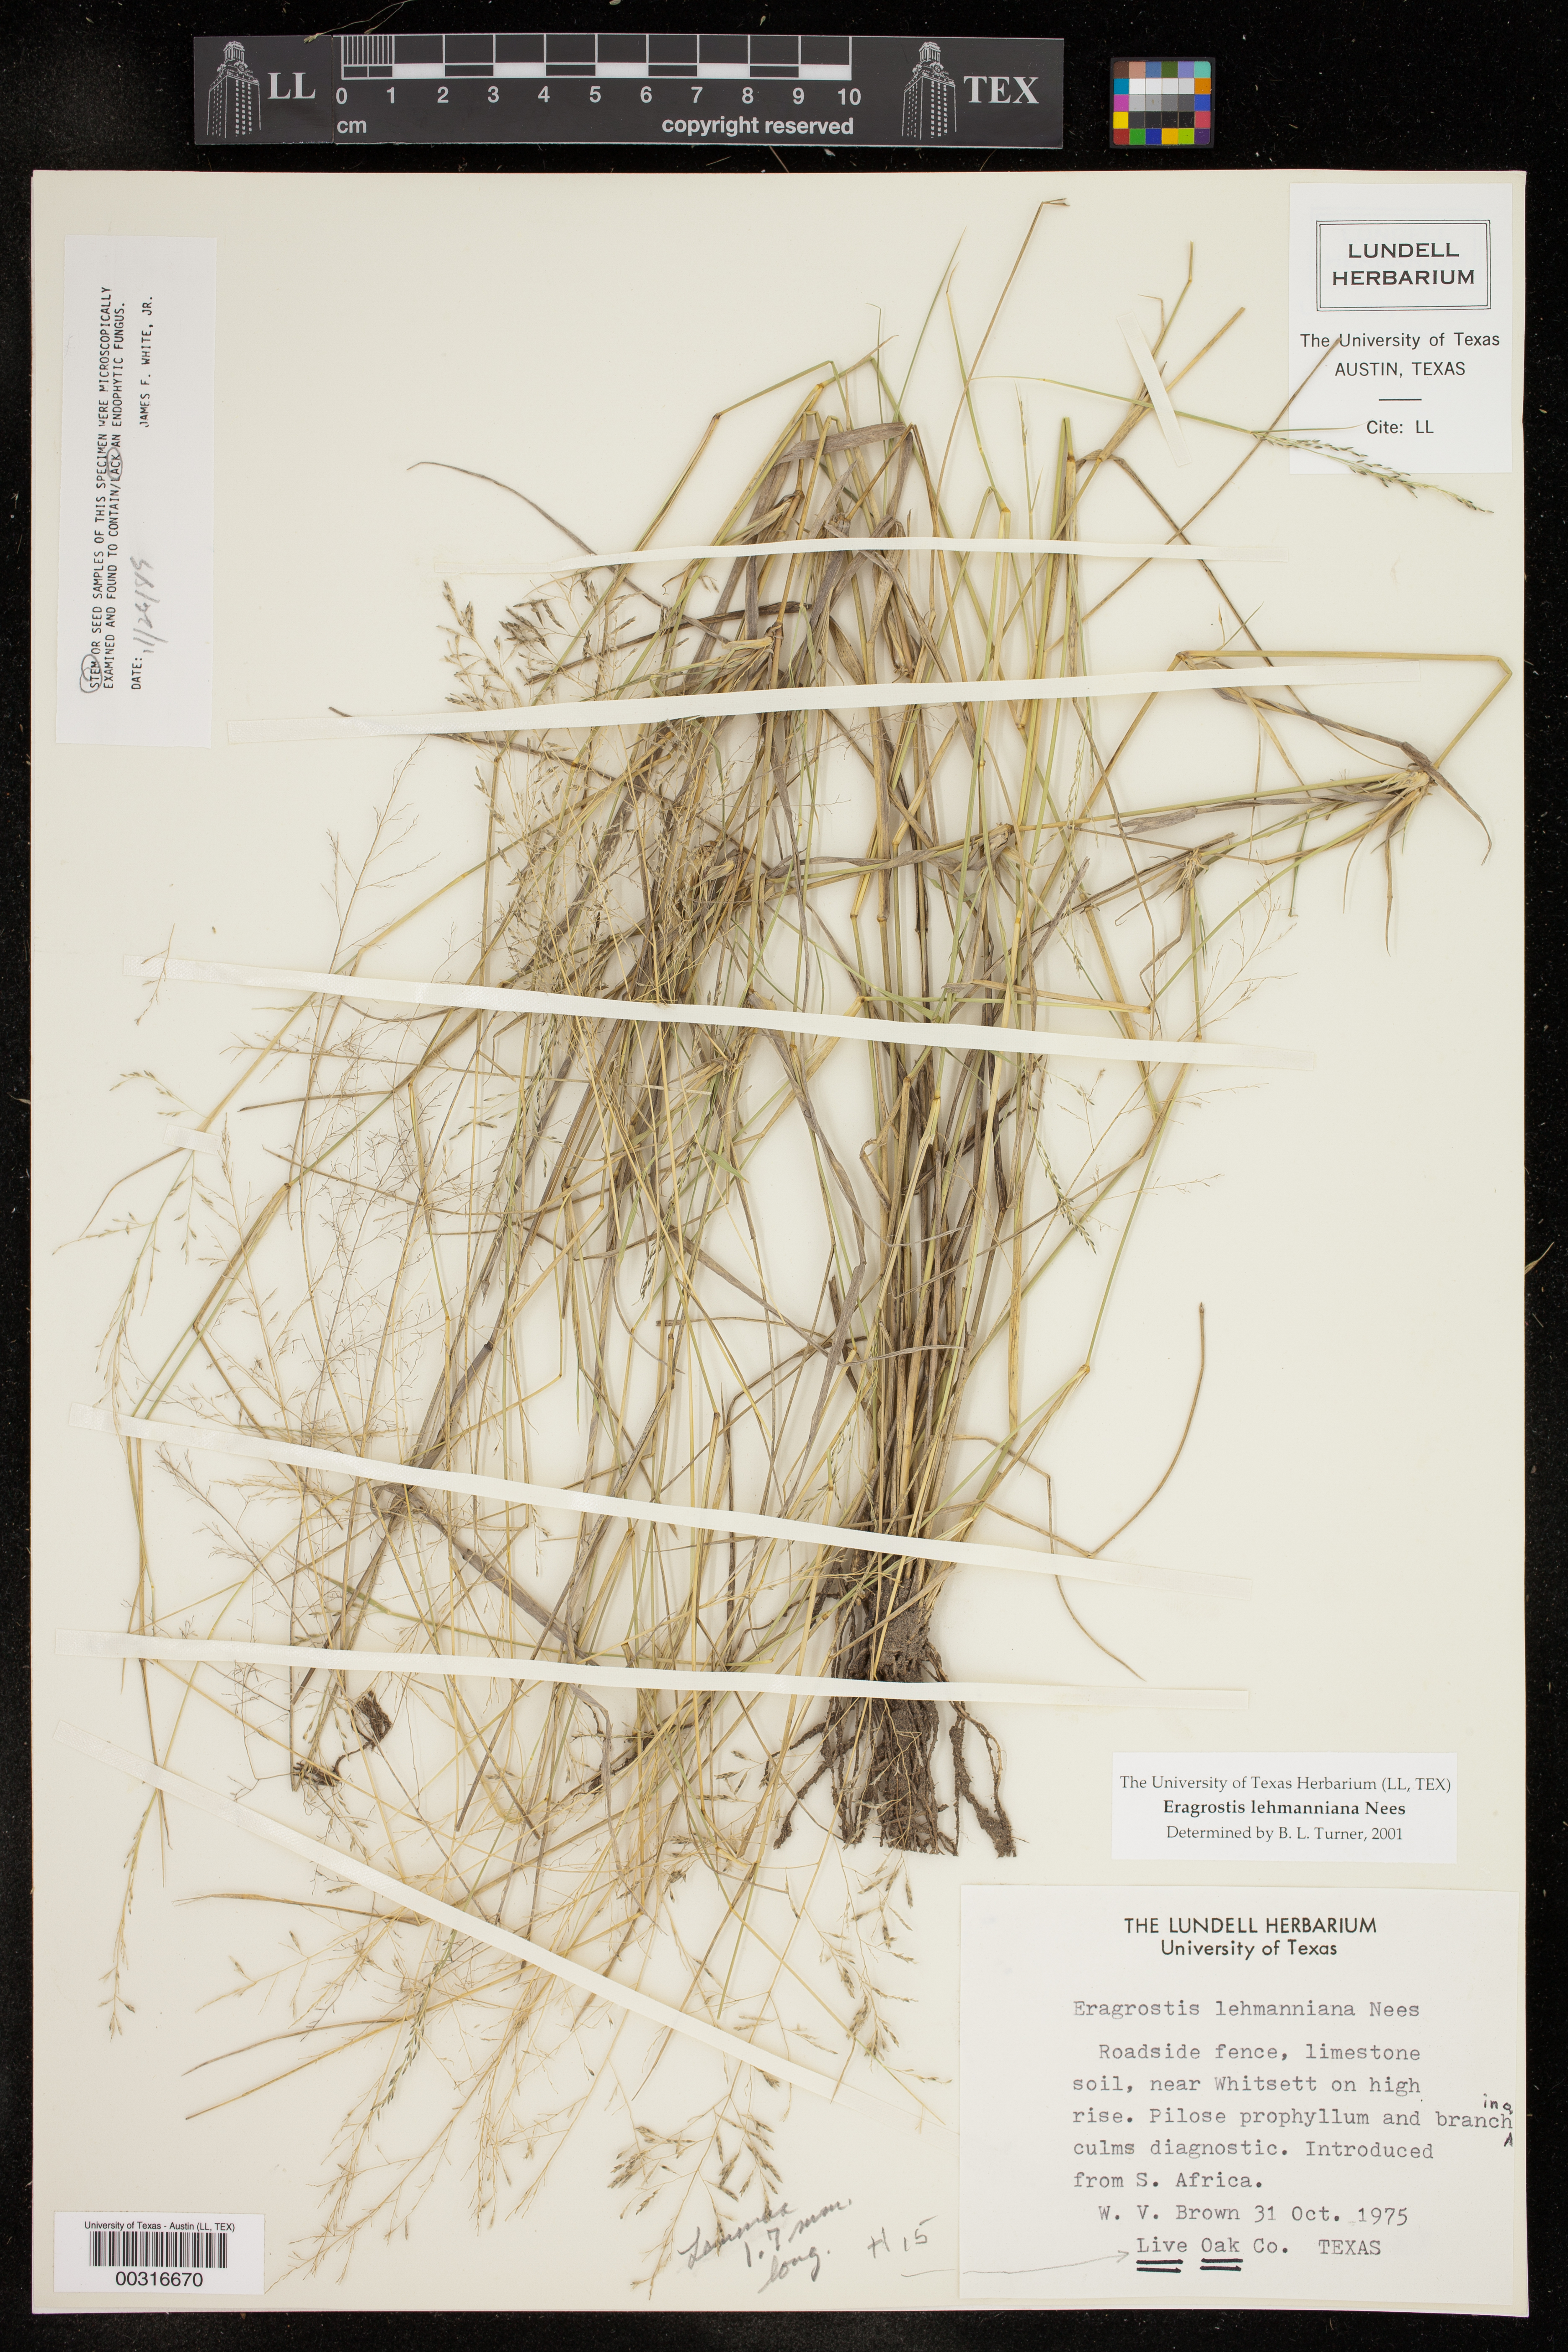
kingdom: Plantae
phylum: Tracheophyta
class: Liliopsida
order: Poales
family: Poaceae
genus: Eragrostis
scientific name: Eragrostis lehmanniana
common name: Lehmann lovegrass
